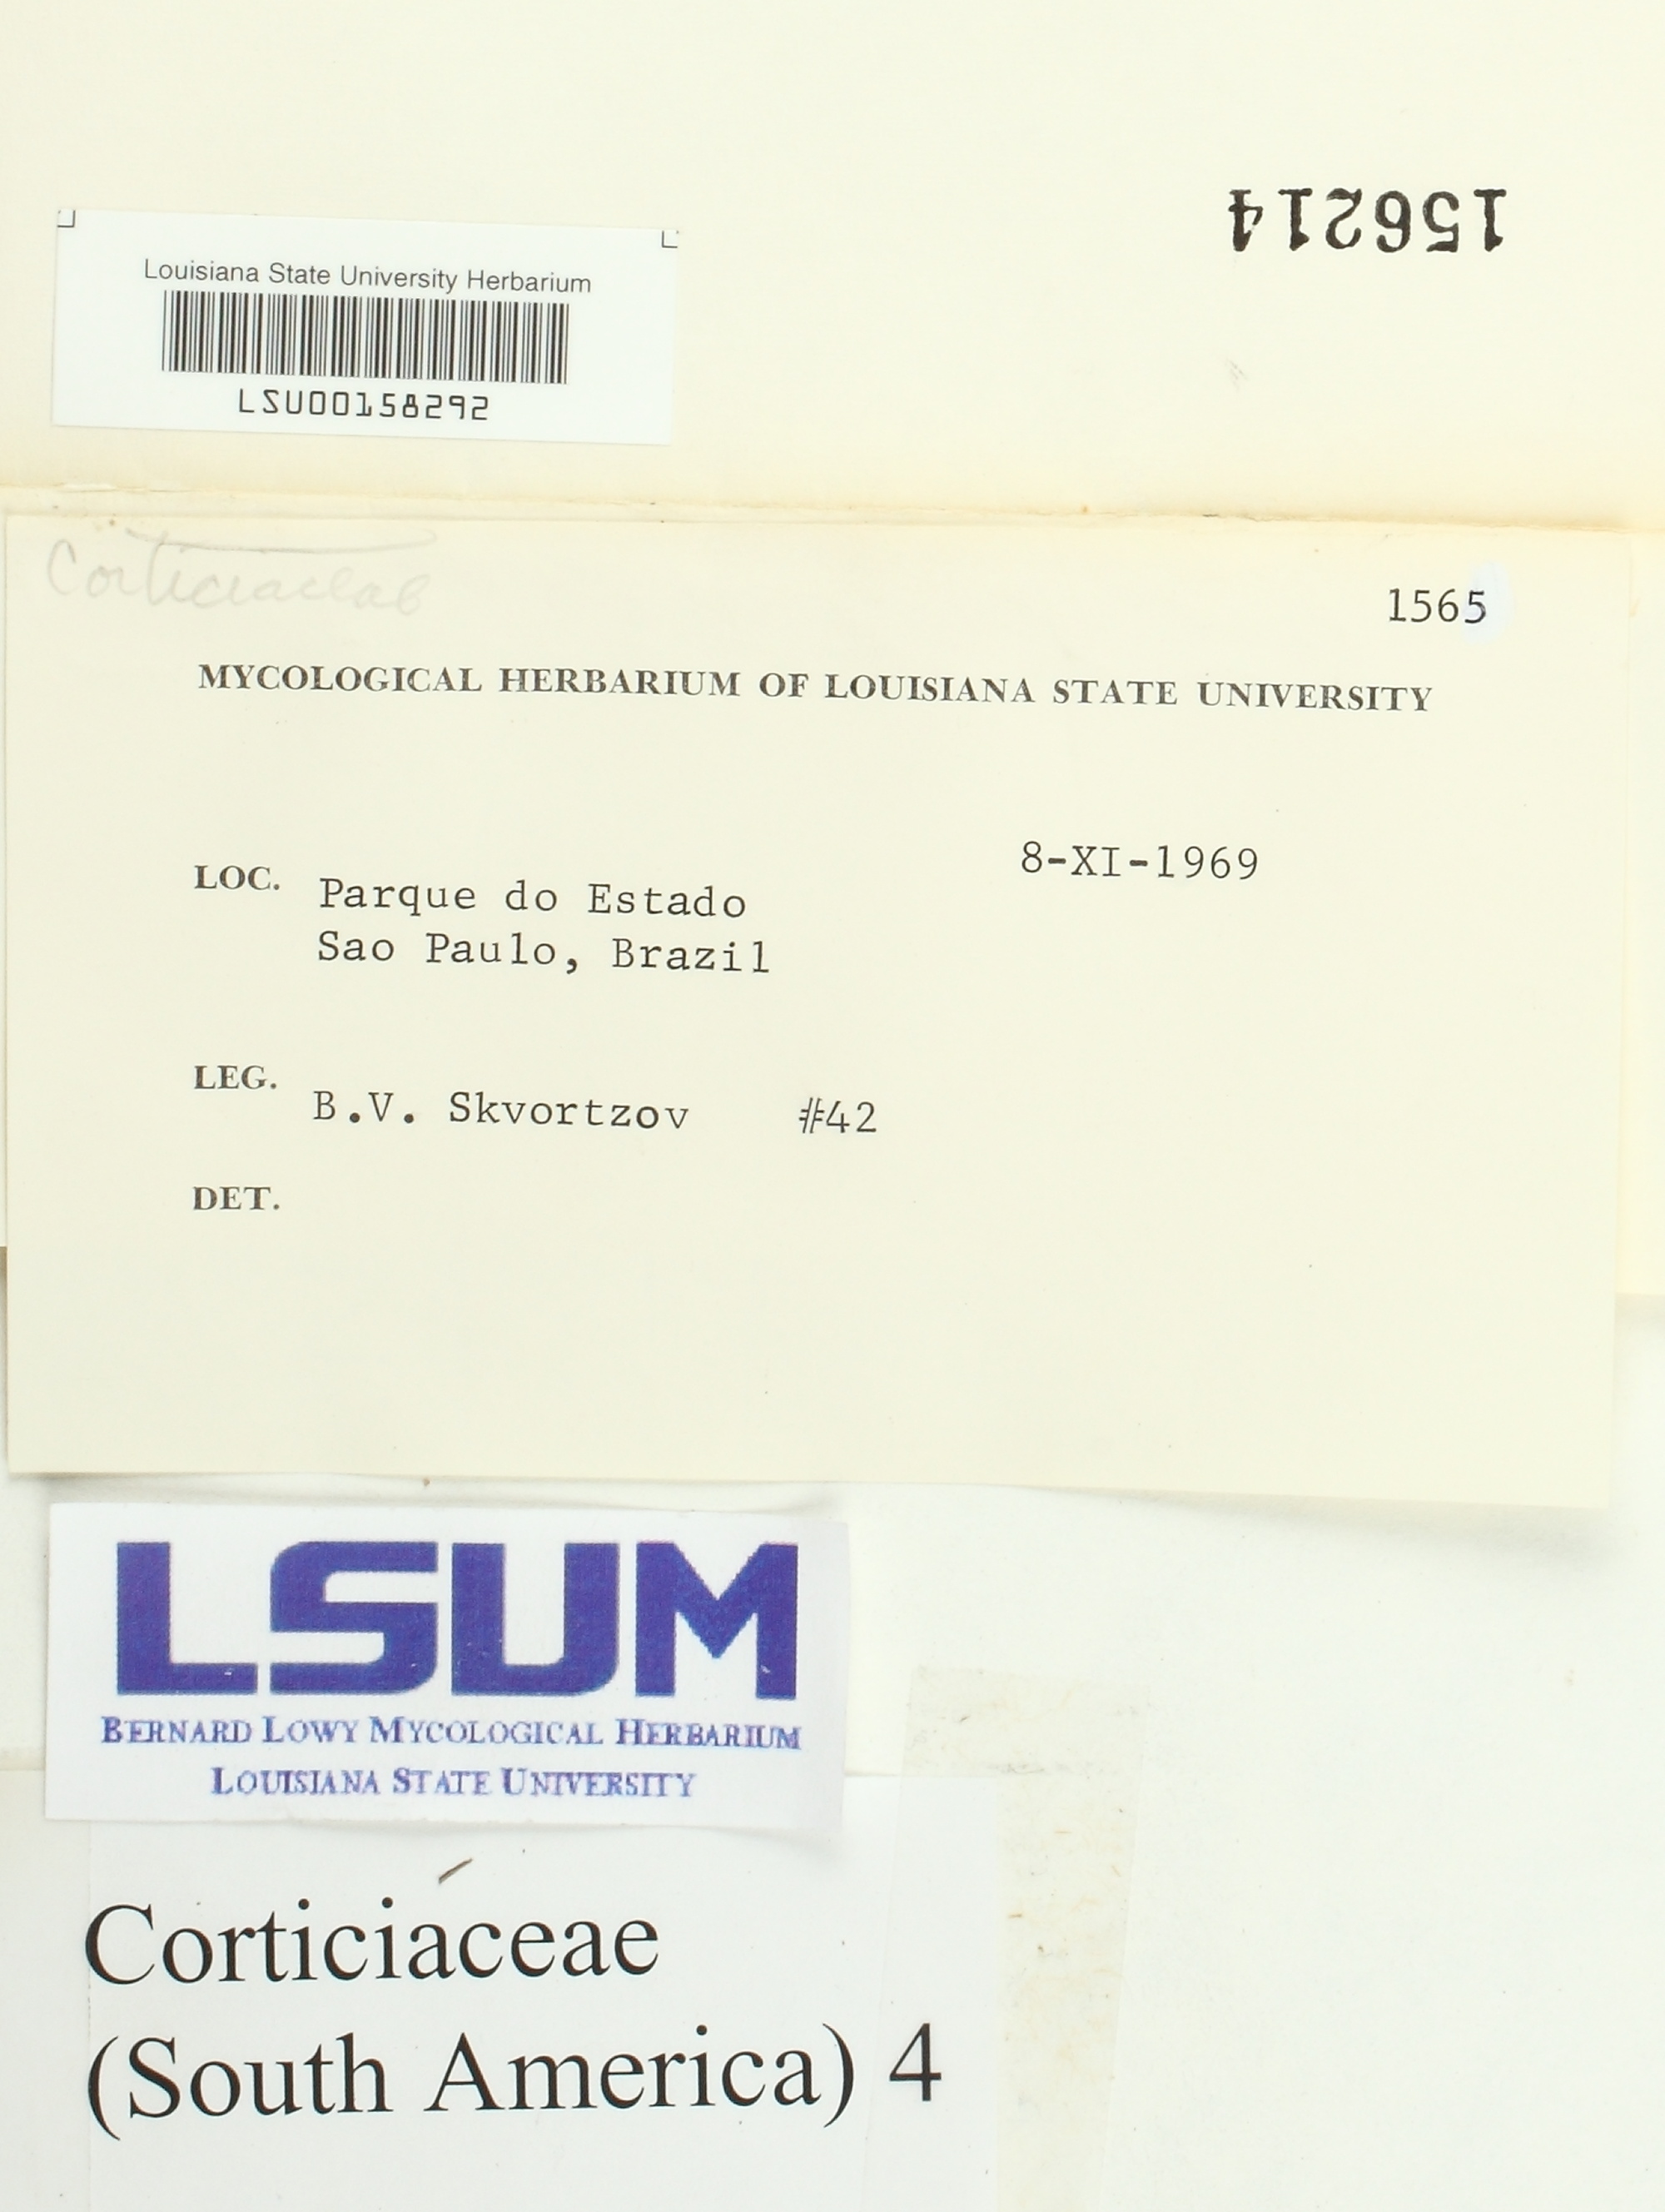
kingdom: Fungi
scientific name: Fungi
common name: Fungi
